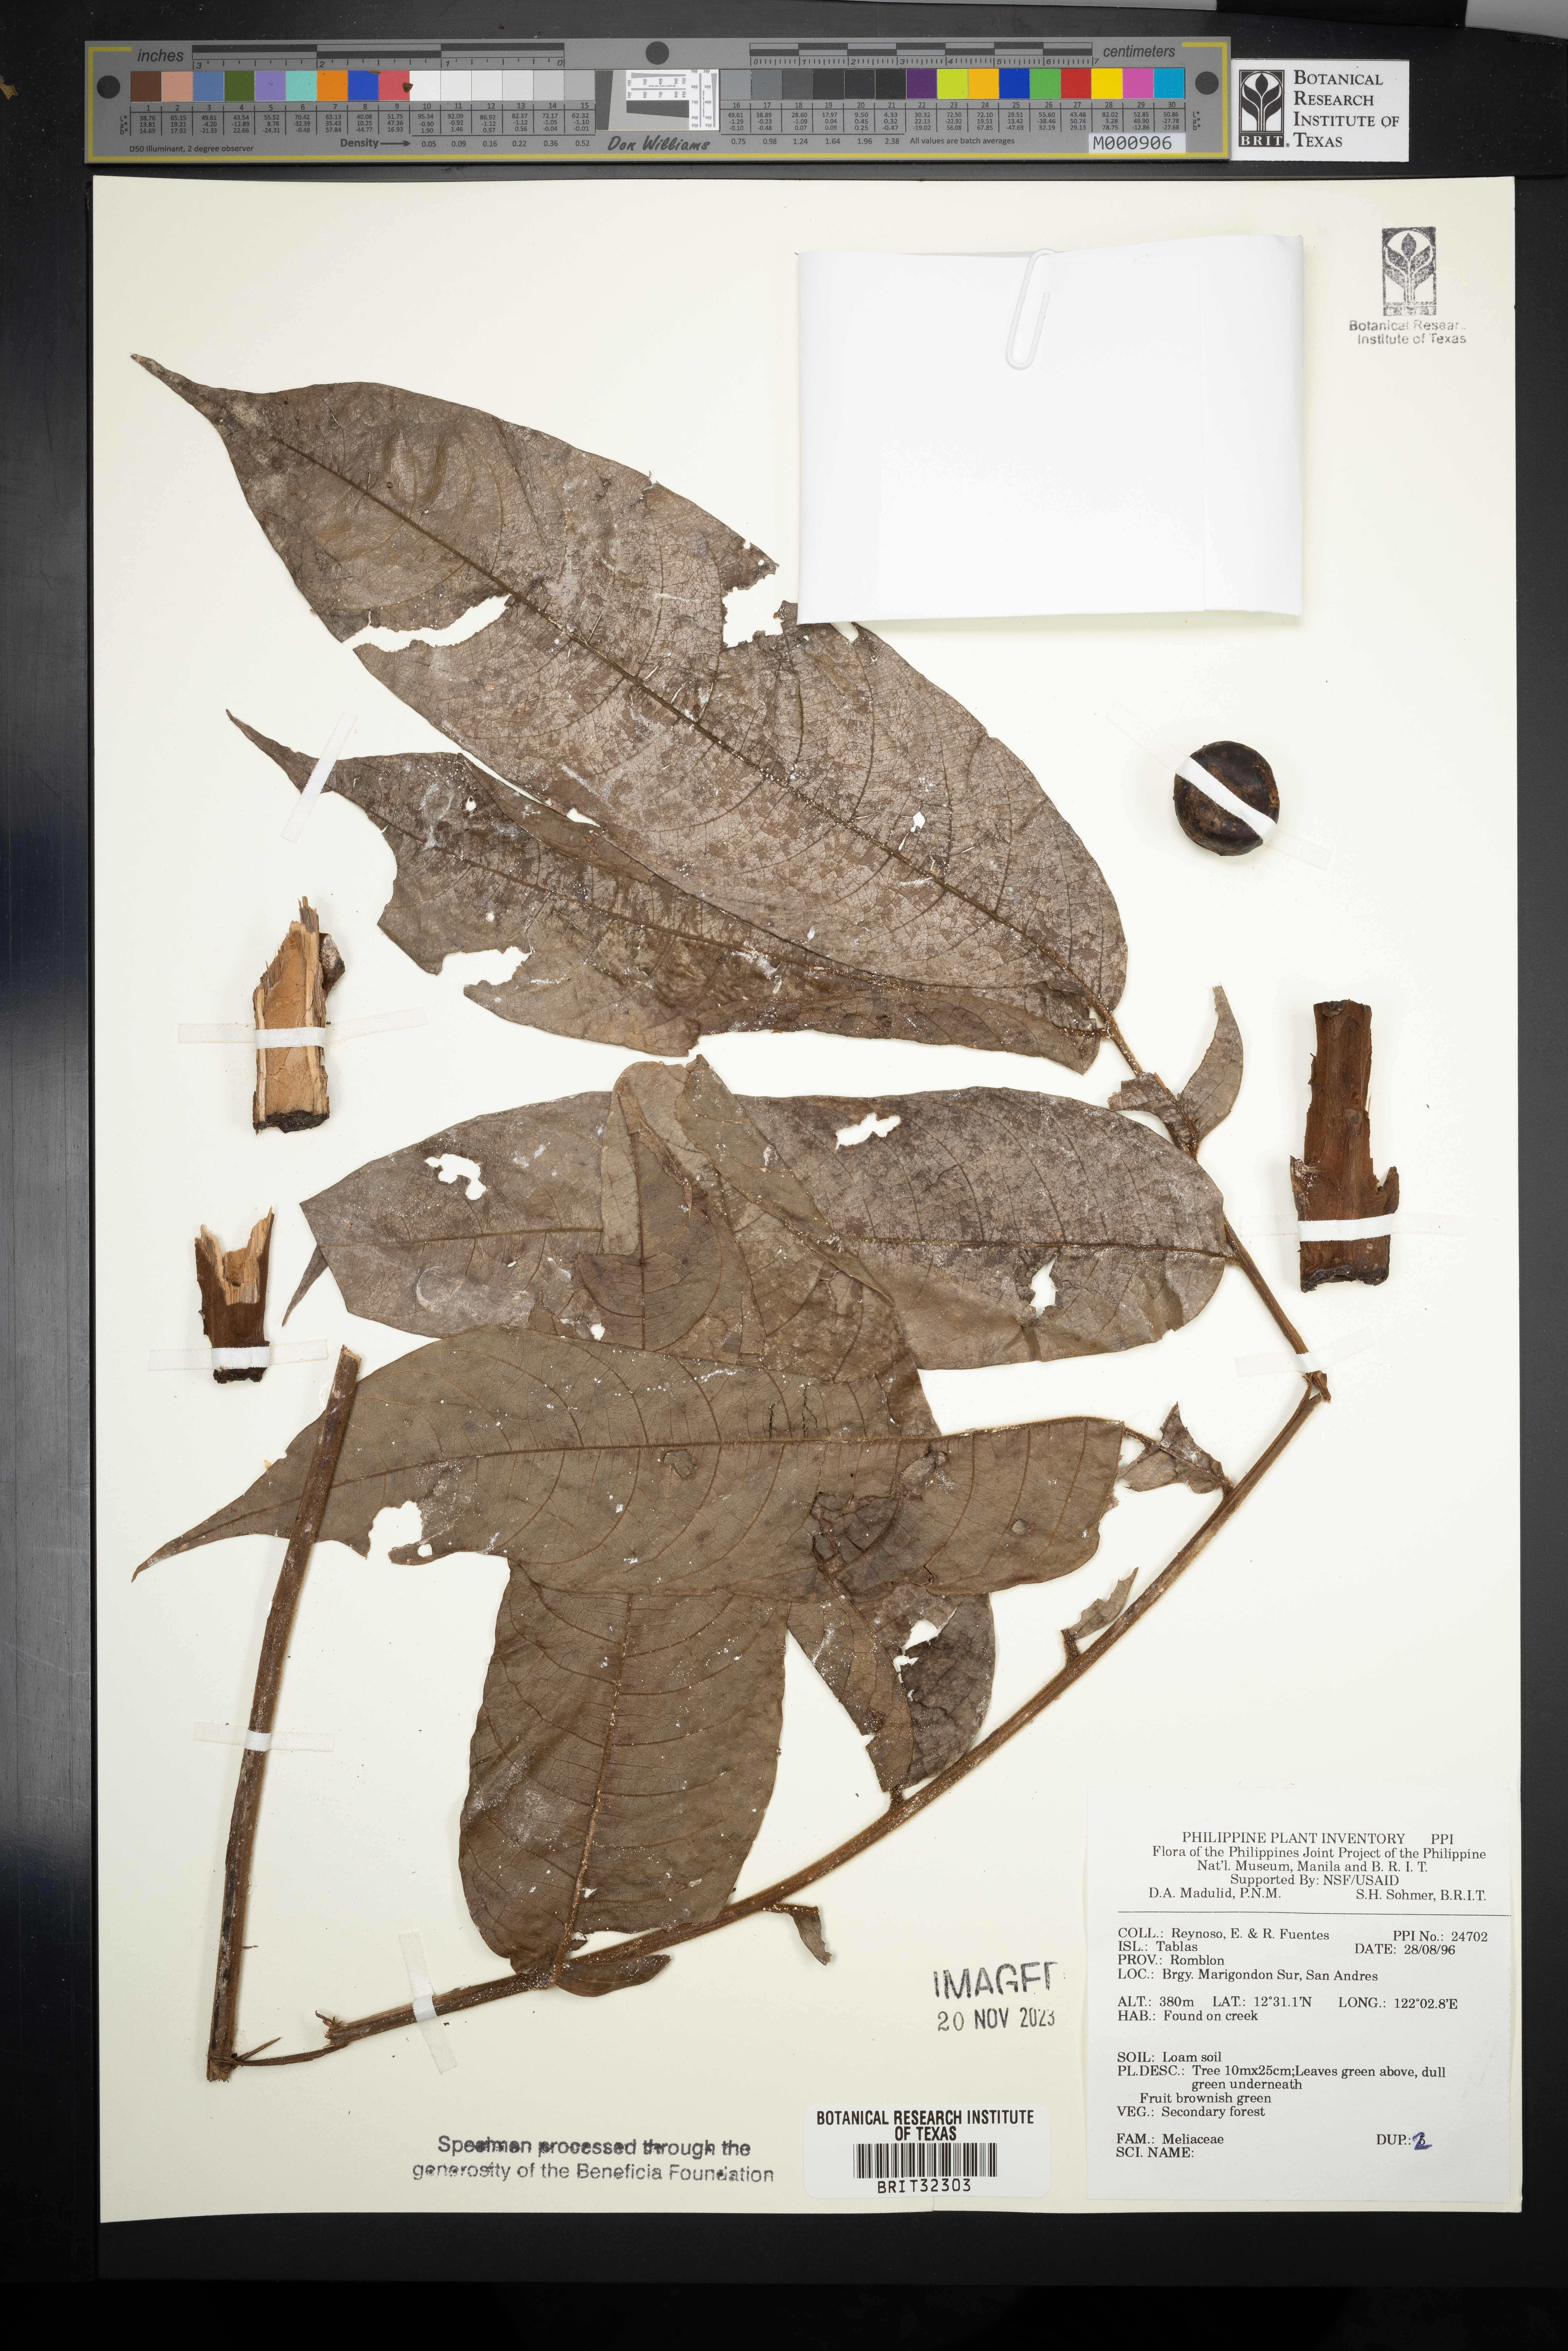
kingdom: Plantae
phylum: Tracheophyta
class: Magnoliopsida
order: Sapindales
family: Meliaceae
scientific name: Meliaceae
